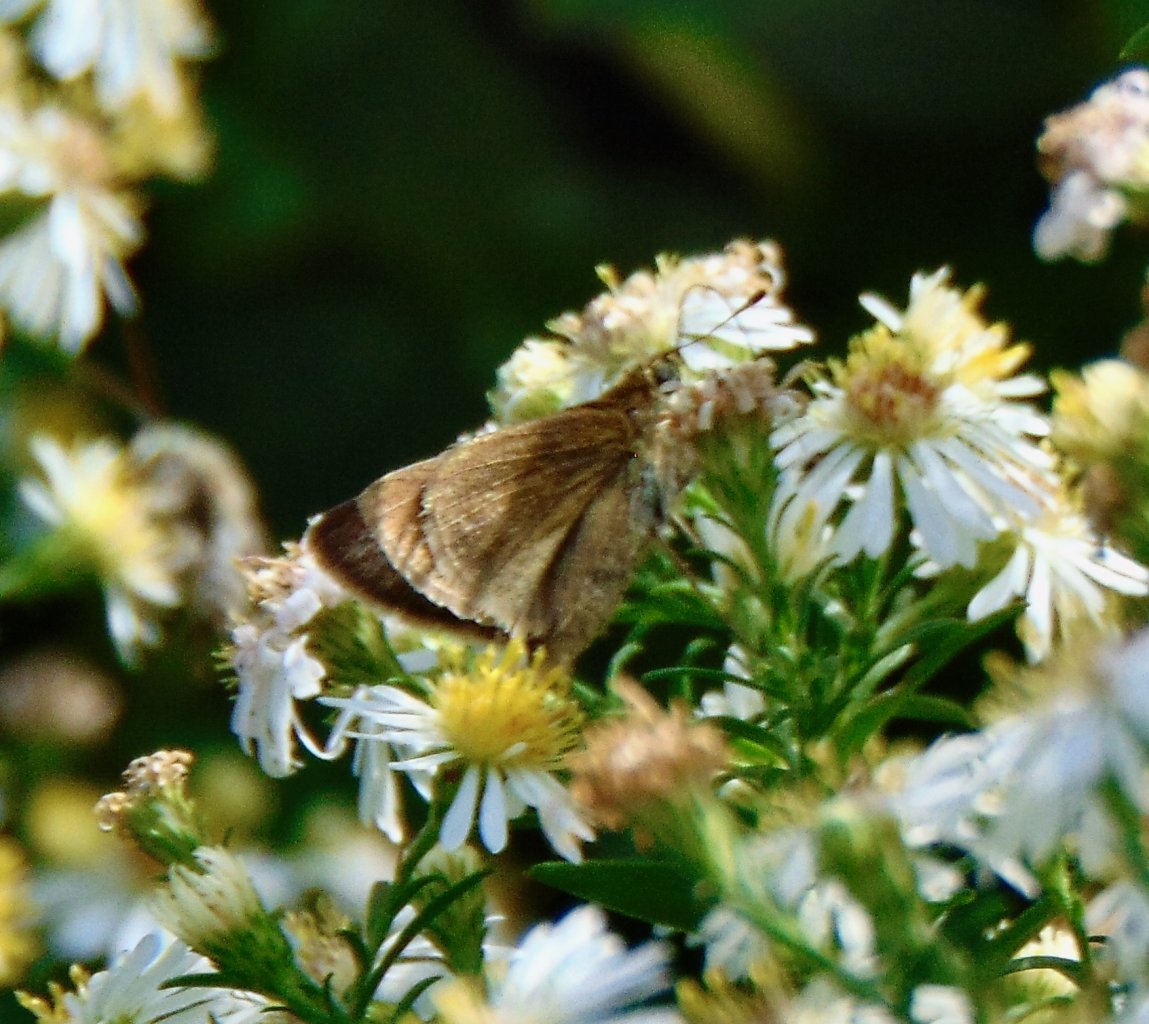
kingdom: Animalia
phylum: Arthropoda
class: Insecta
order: Lepidoptera
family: Hesperiidae
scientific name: Hesperiidae
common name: Skippers
